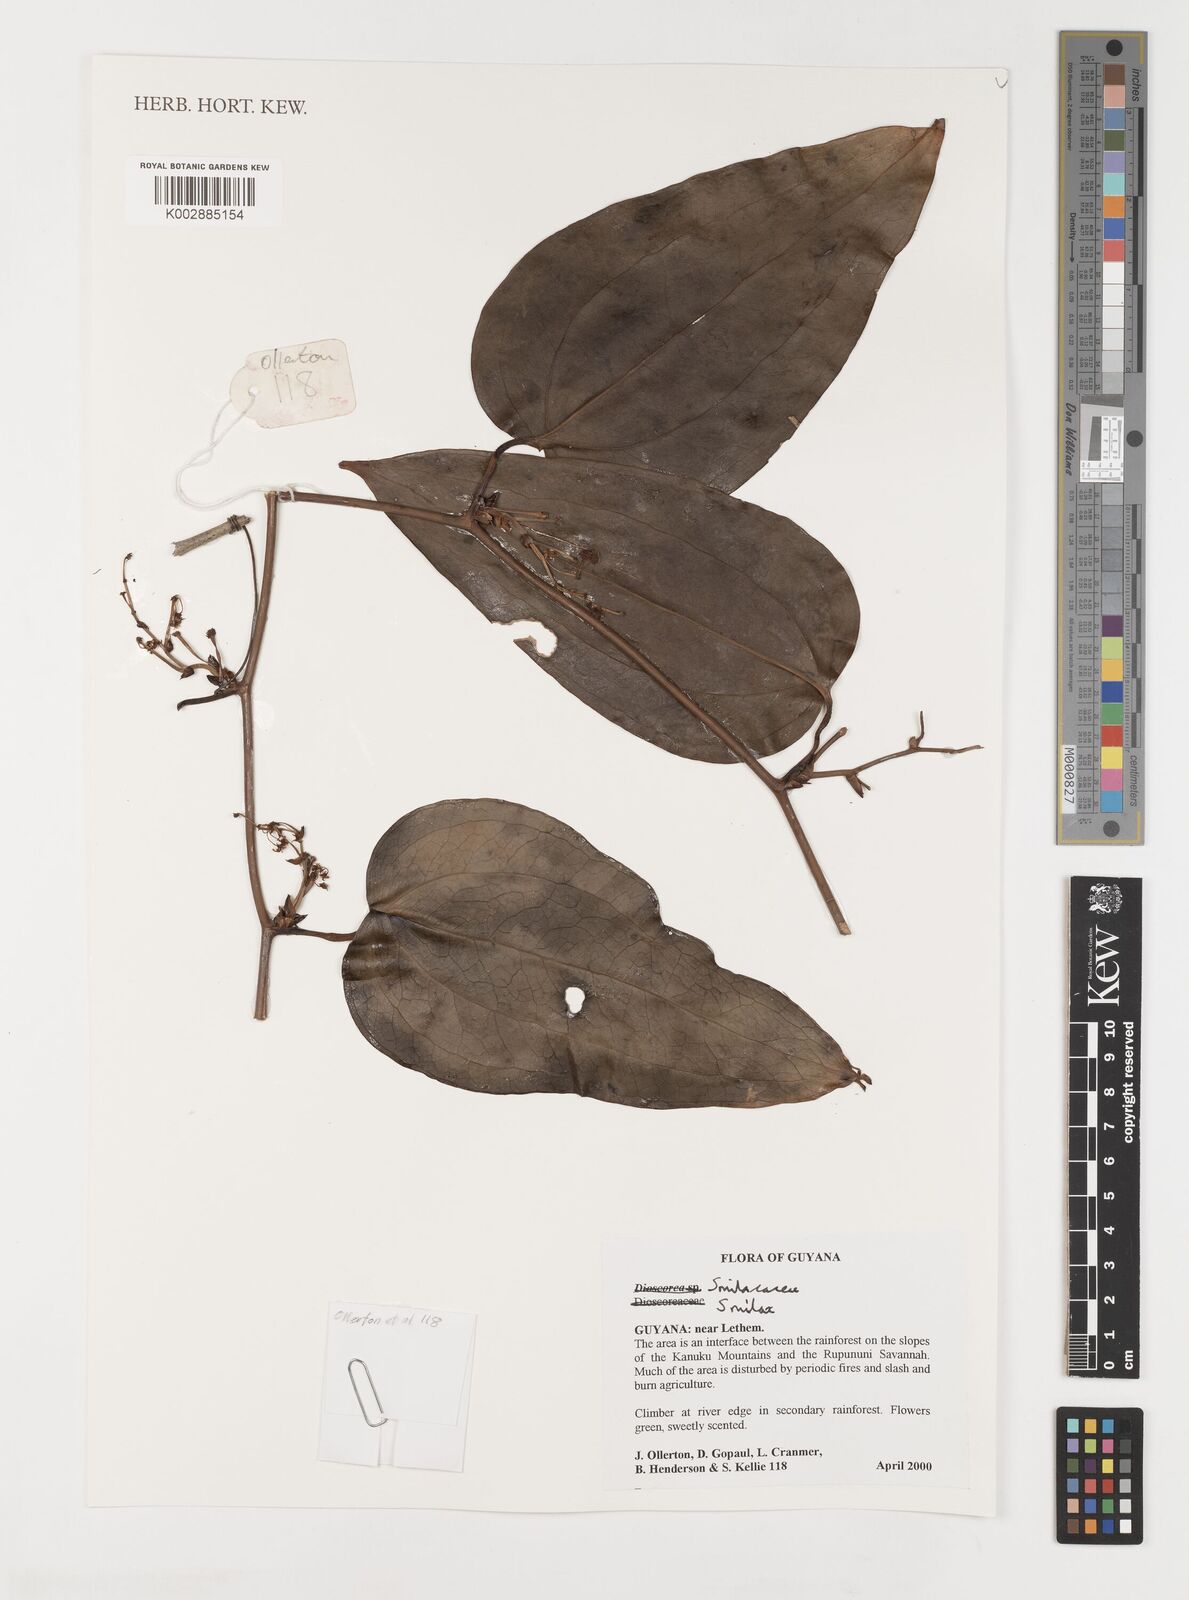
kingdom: Plantae
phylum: Tracheophyta
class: Liliopsida
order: Liliales
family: Smilacaceae
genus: Smilax
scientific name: Smilax
